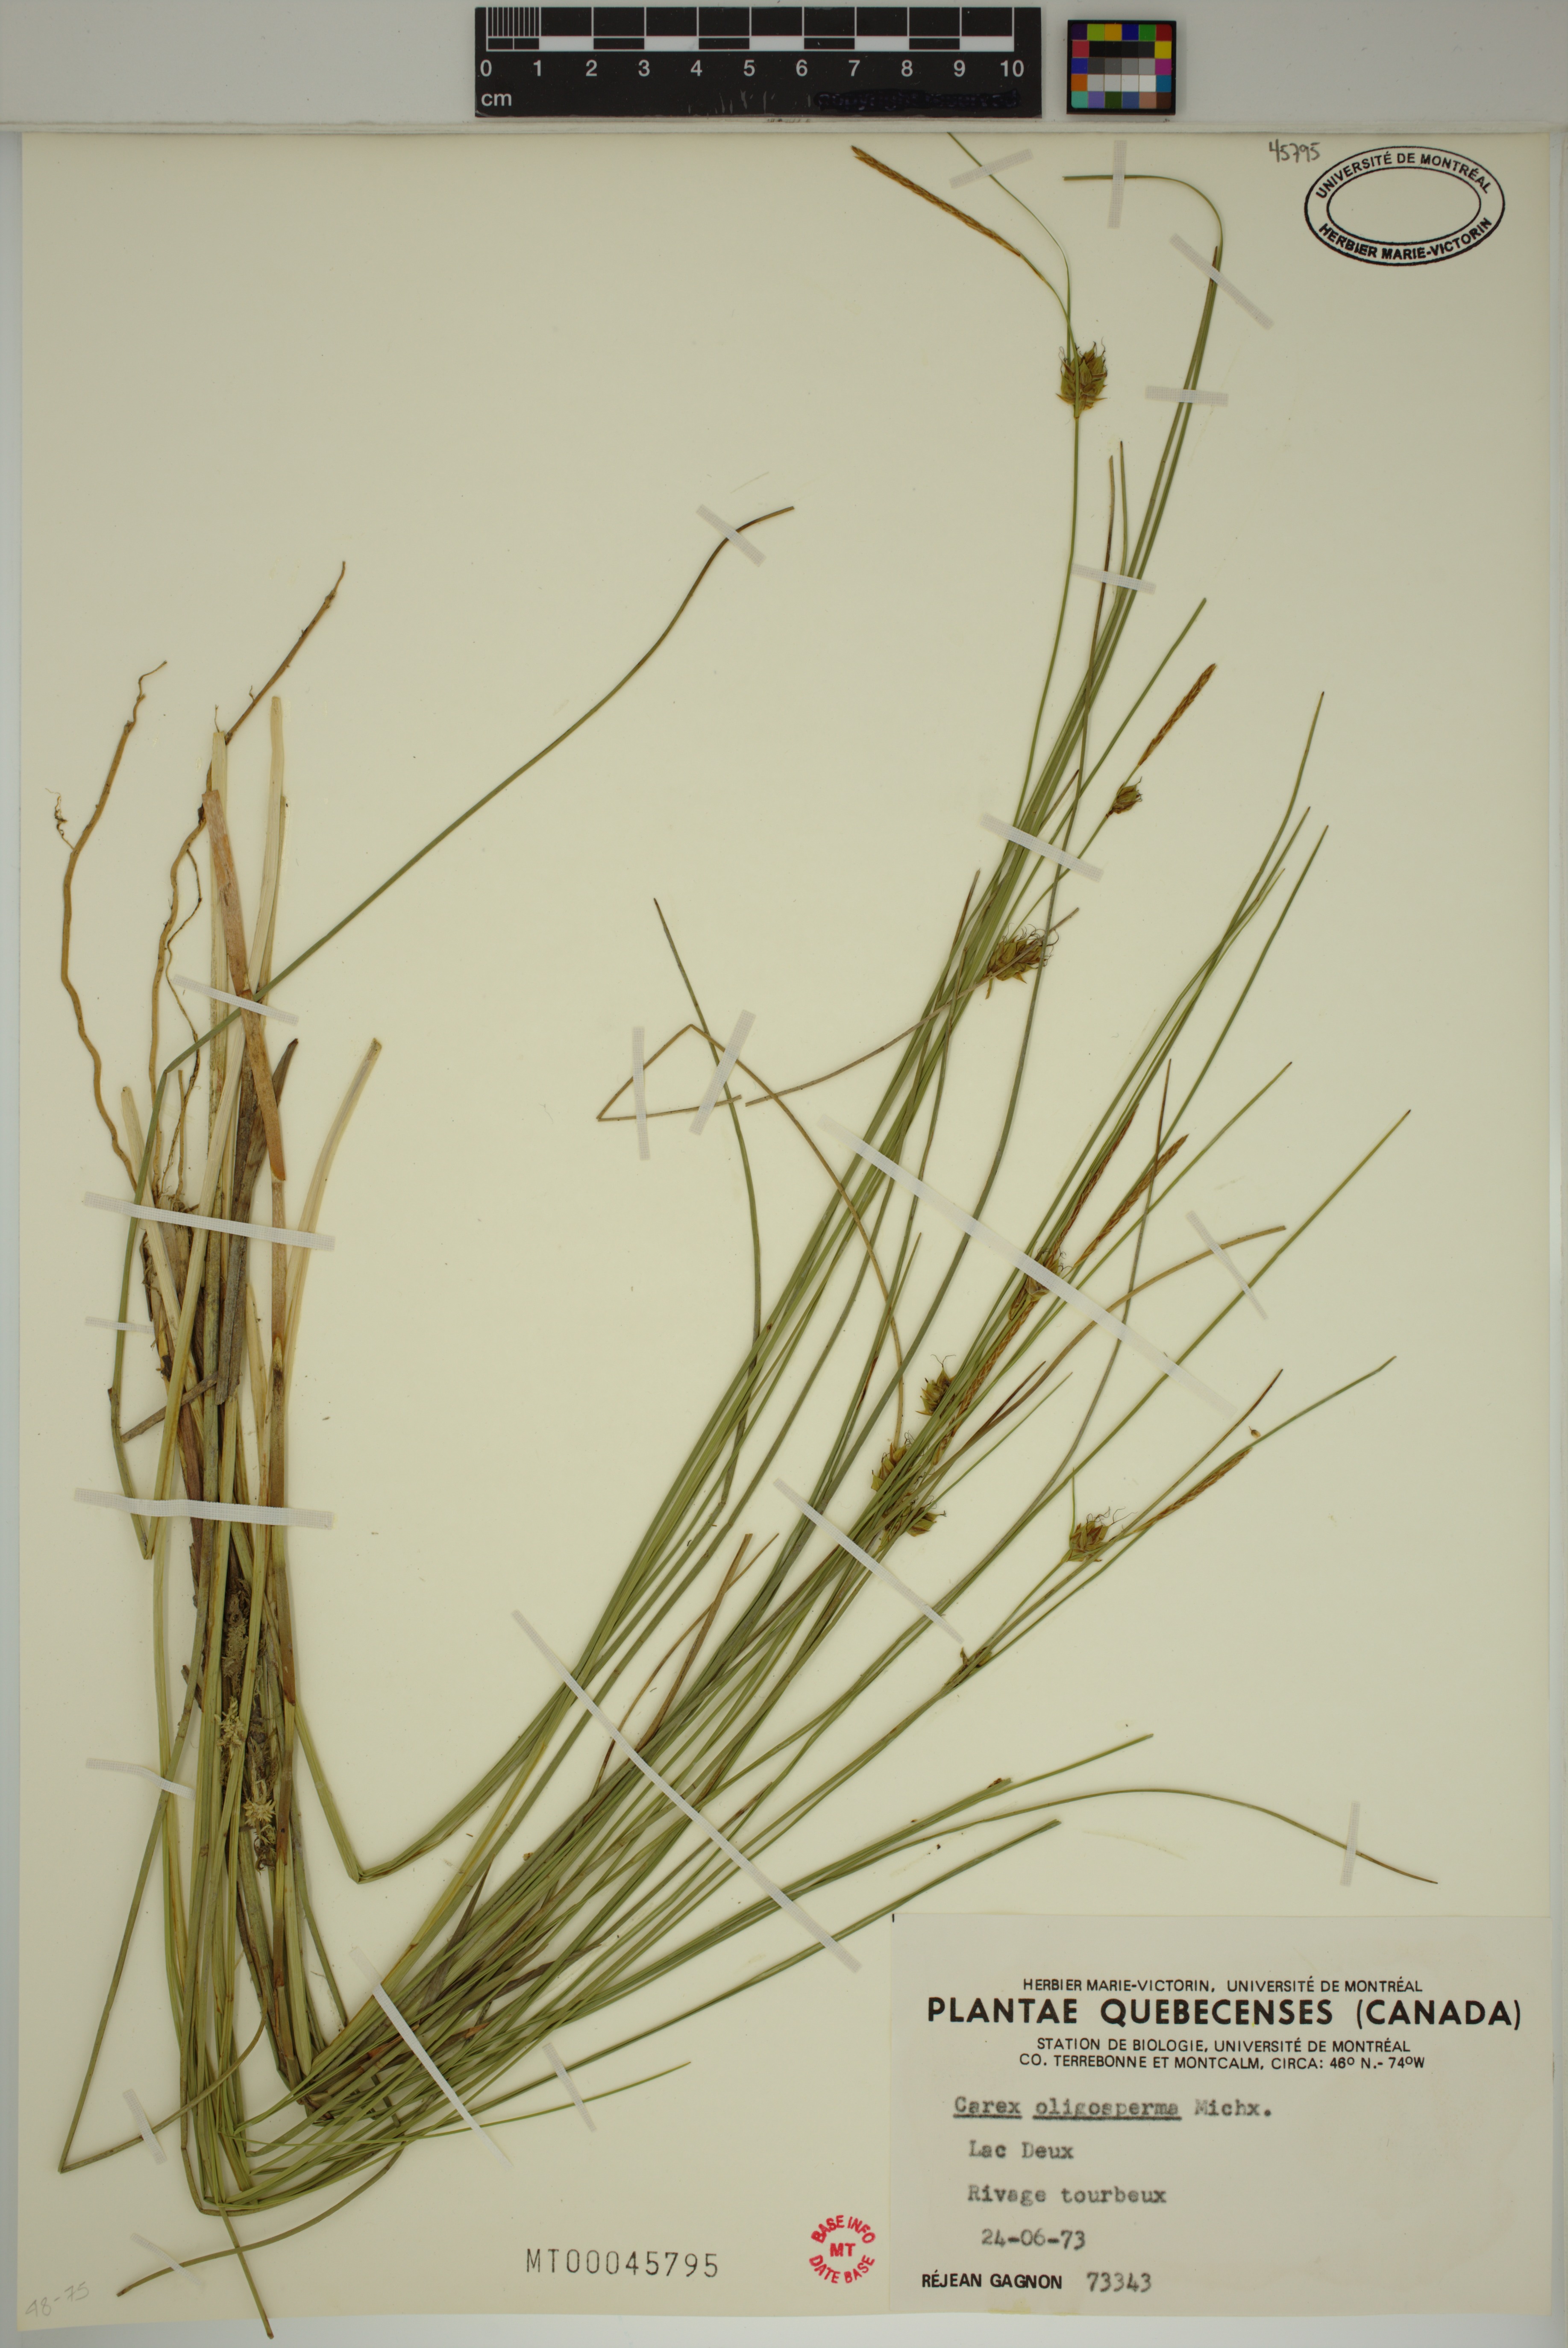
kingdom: Plantae
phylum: Tracheophyta
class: Liliopsida
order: Poales
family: Cyperaceae
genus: Carex
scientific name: Carex oligosperma
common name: Few-seed sedge
